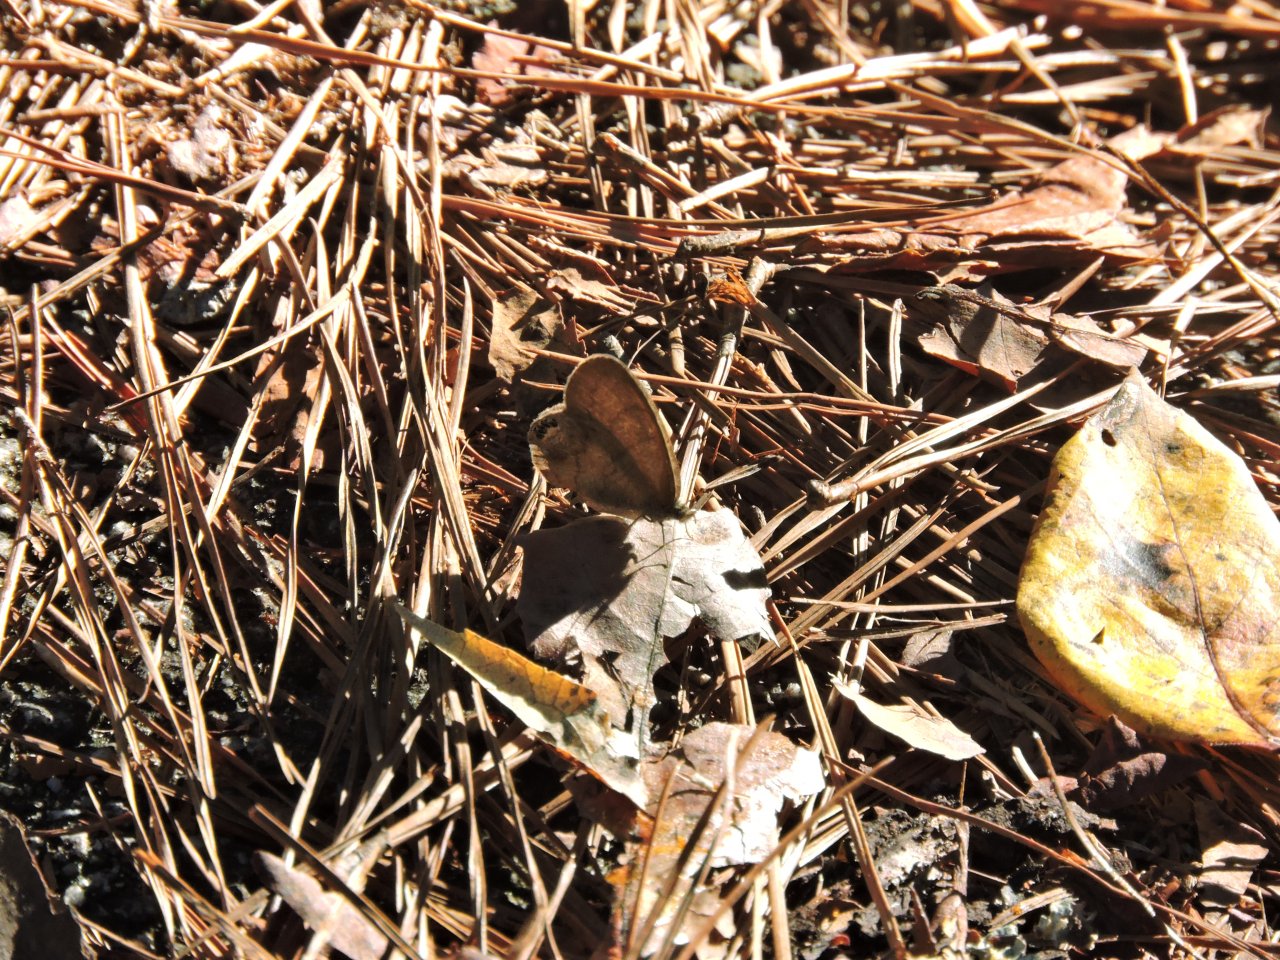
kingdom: Animalia
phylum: Arthropoda
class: Insecta
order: Lepidoptera
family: Nymphalidae
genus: Euptychia
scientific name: Euptychia cornelius
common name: Gemmed Satyr
